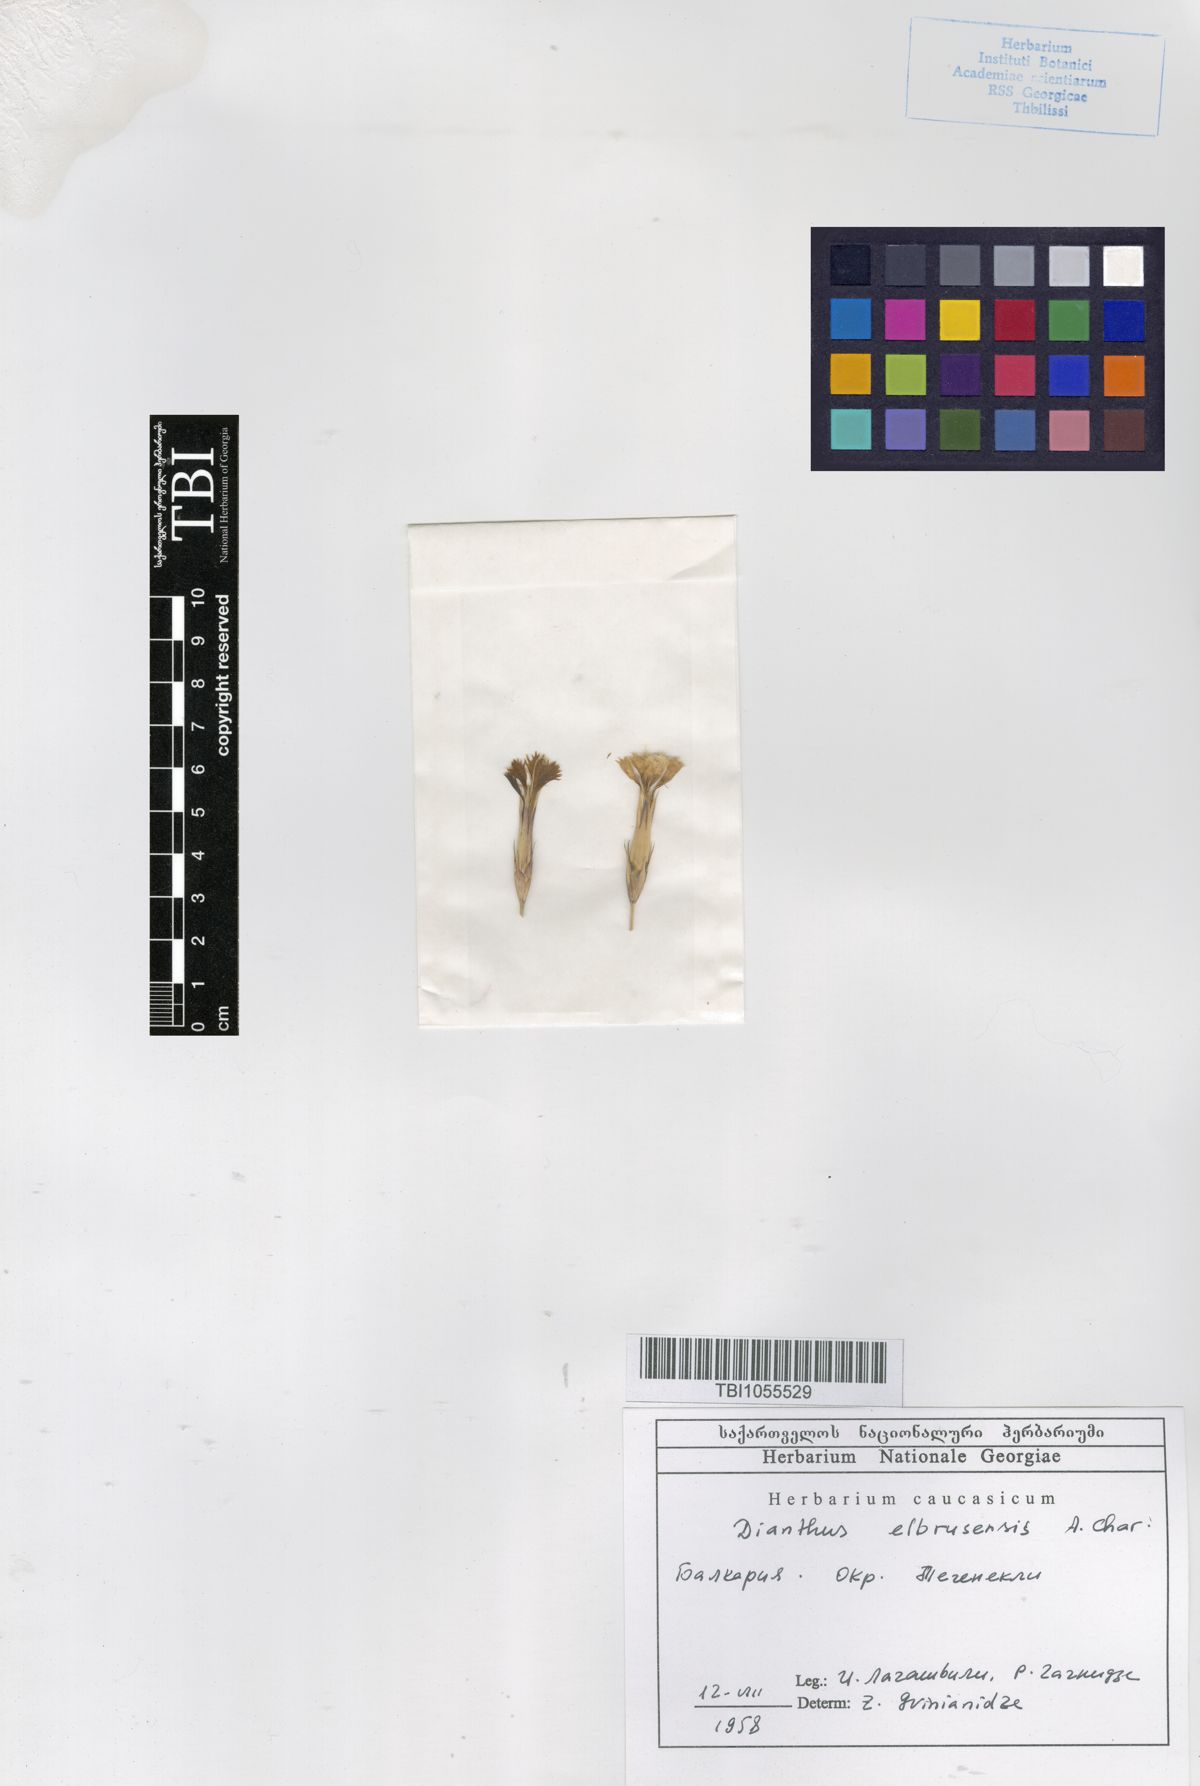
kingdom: Plantae
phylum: Tracheophyta
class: Magnoliopsida
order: Caryophyllales
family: Caryophyllaceae
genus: Dianthus
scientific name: Dianthus
